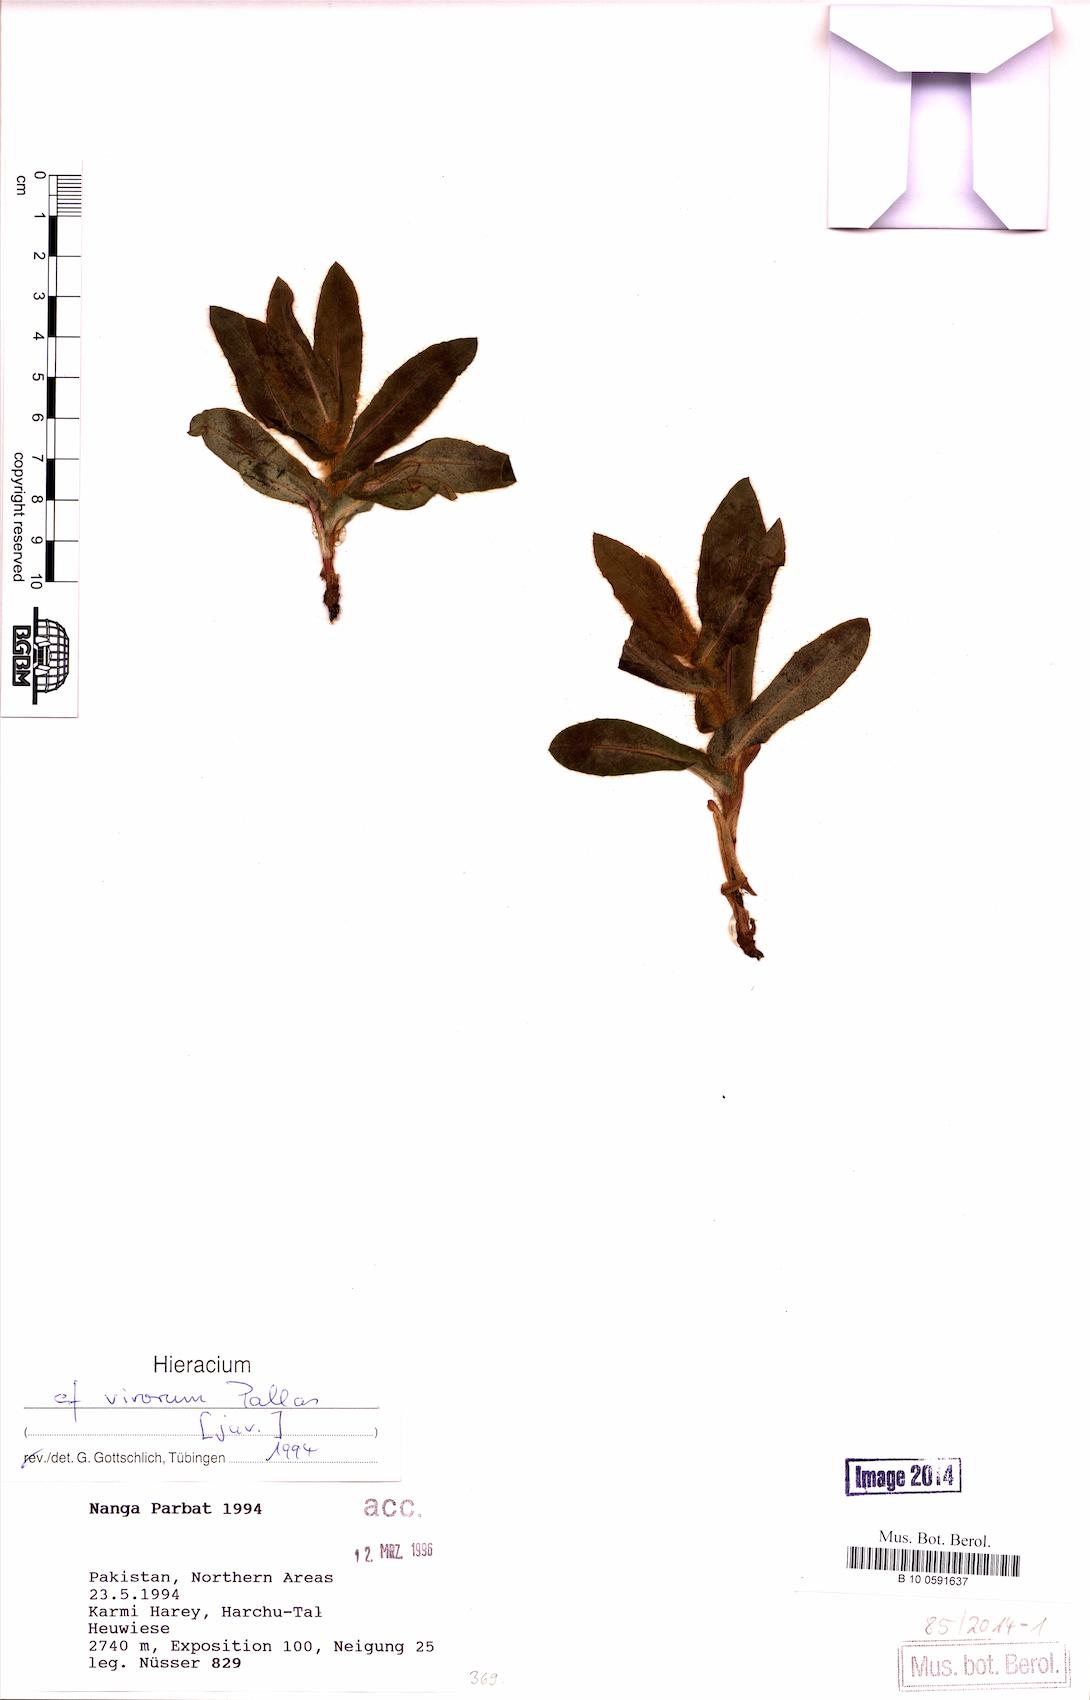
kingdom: Plantae
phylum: Tracheophyta
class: Magnoliopsida
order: Asterales
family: Asteraceae
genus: Hieracium
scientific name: Hieracium virosum
